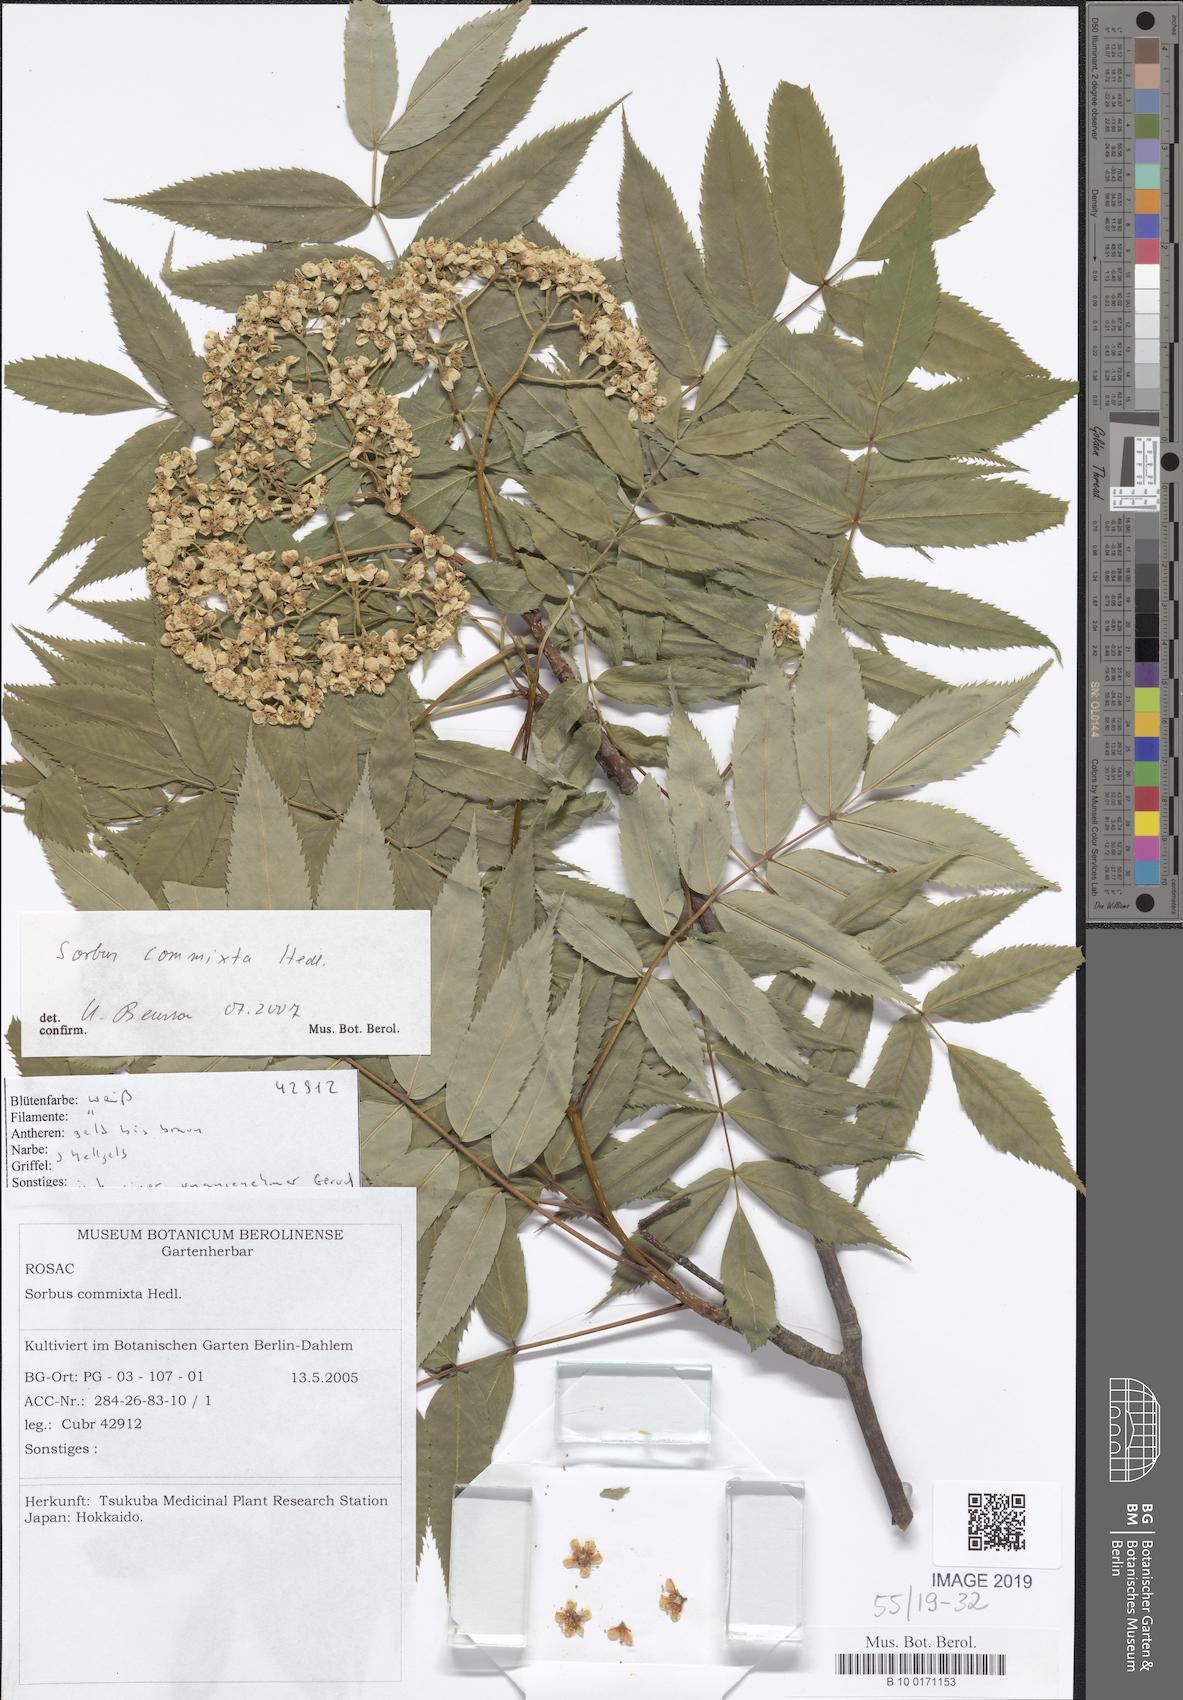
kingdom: Plantae
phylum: Tracheophyta
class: Magnoliopsida
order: Rosales
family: Rosaceae
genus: Sorbus
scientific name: Sorbus commixta
